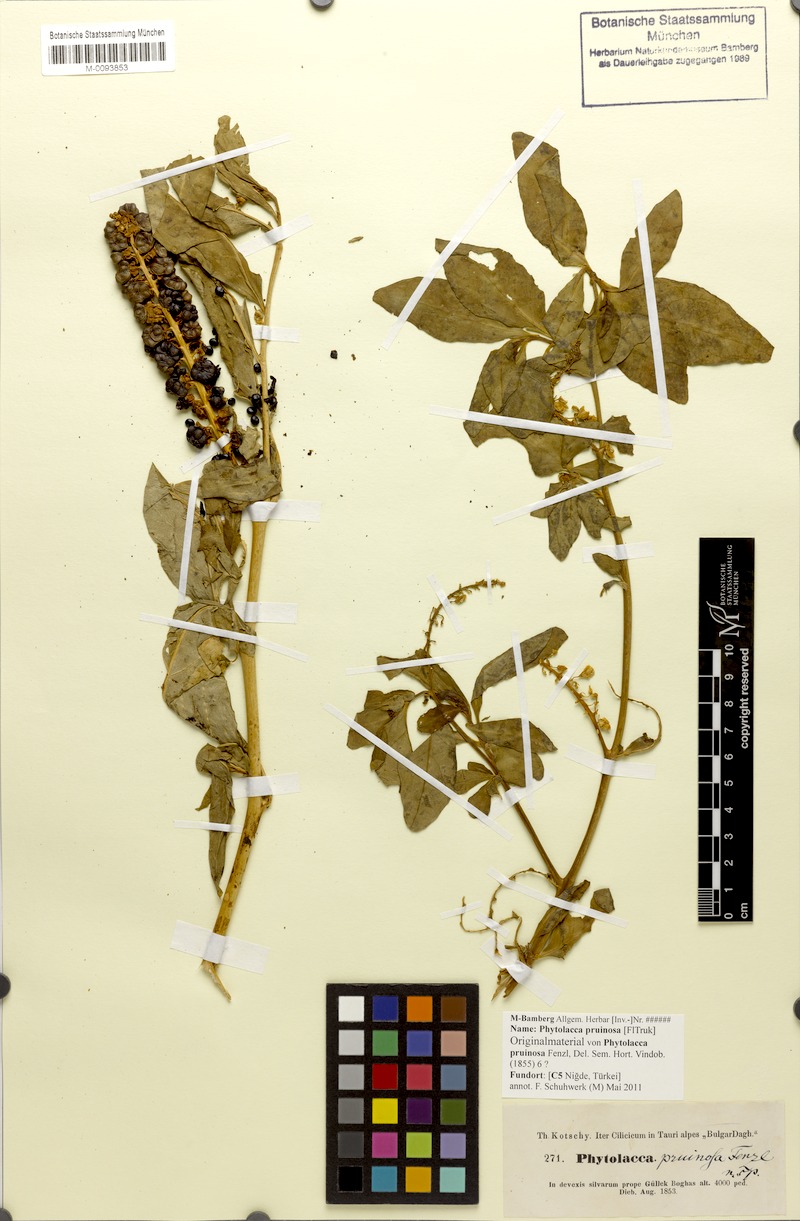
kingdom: Plantae
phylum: Tracheophyta
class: Magnoliopsida
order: Caryophyllales
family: Phytolaccaceae
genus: Phytolacca
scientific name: Phytolacca pruinosa
